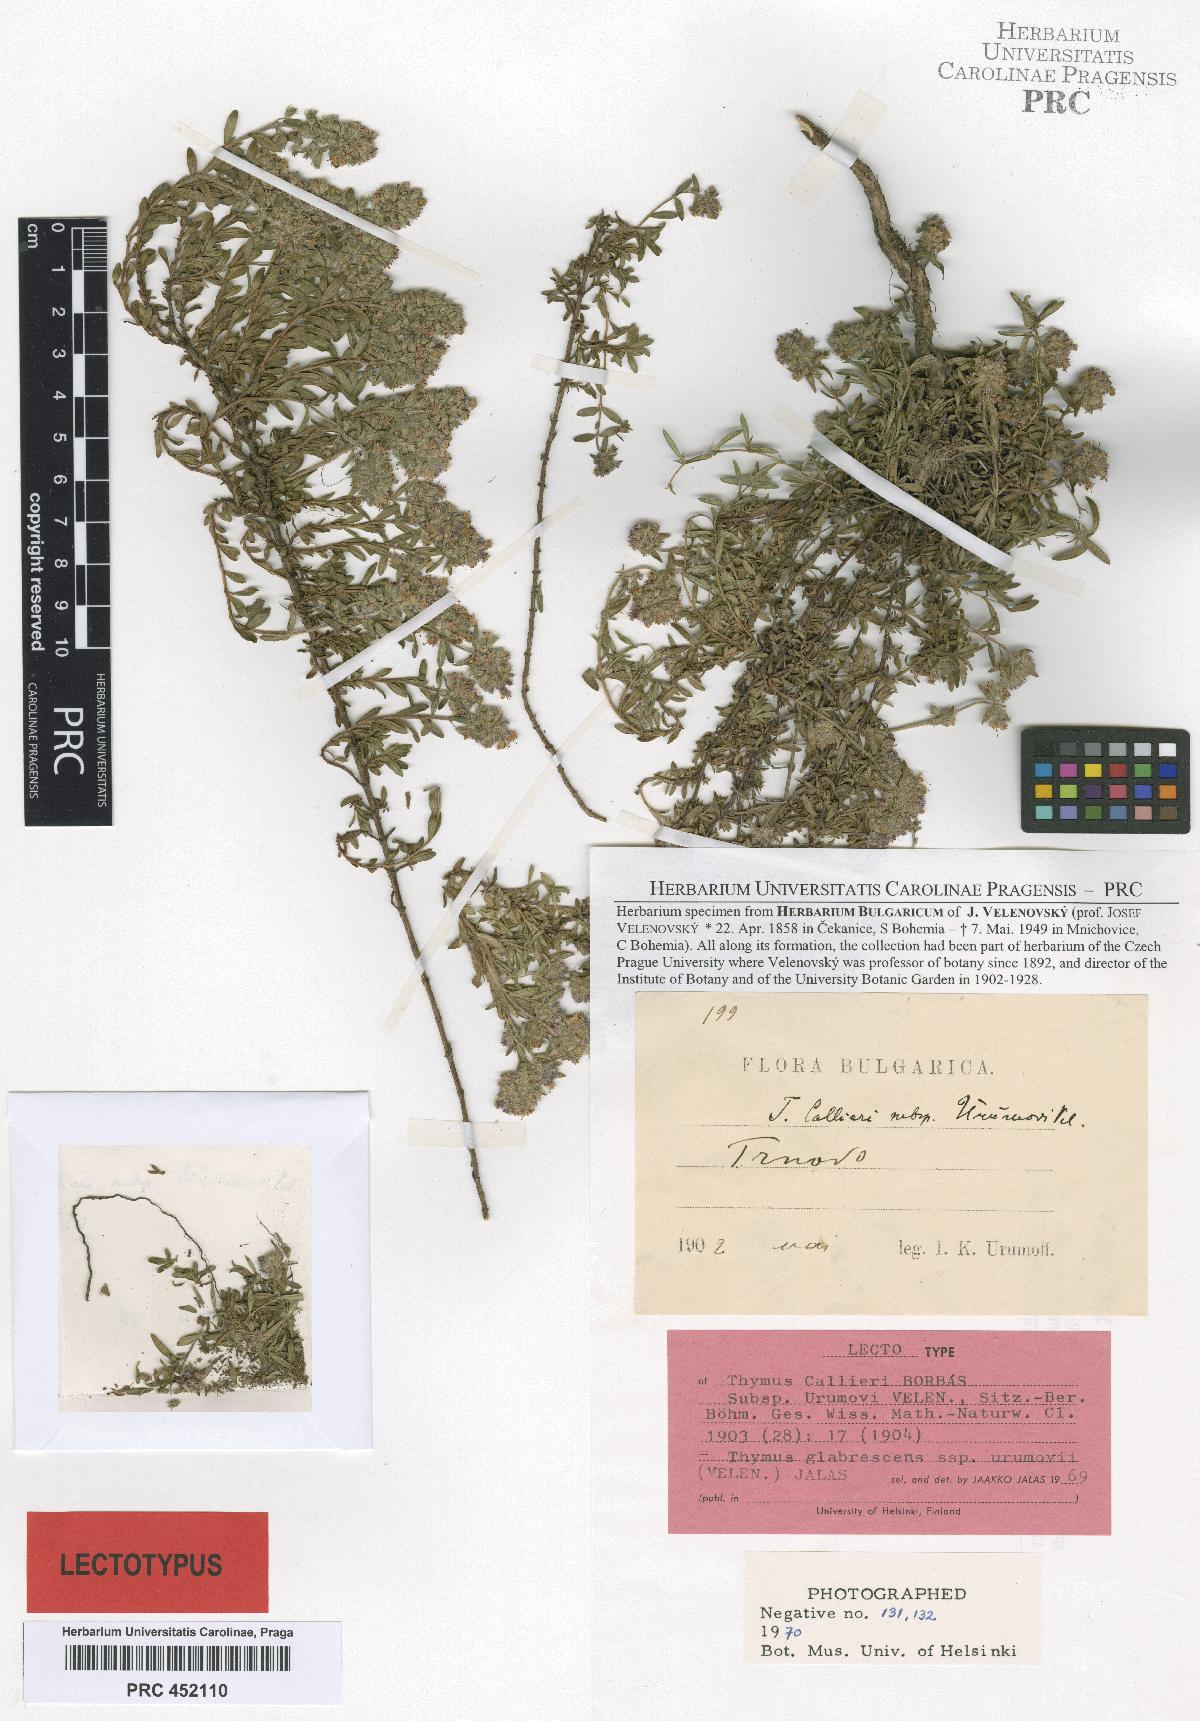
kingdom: Plantae
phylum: Tracheophyta
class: Magnoliopsida
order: Lamiales
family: Lamiaceae
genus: Thymus
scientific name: Thymus urumovii
